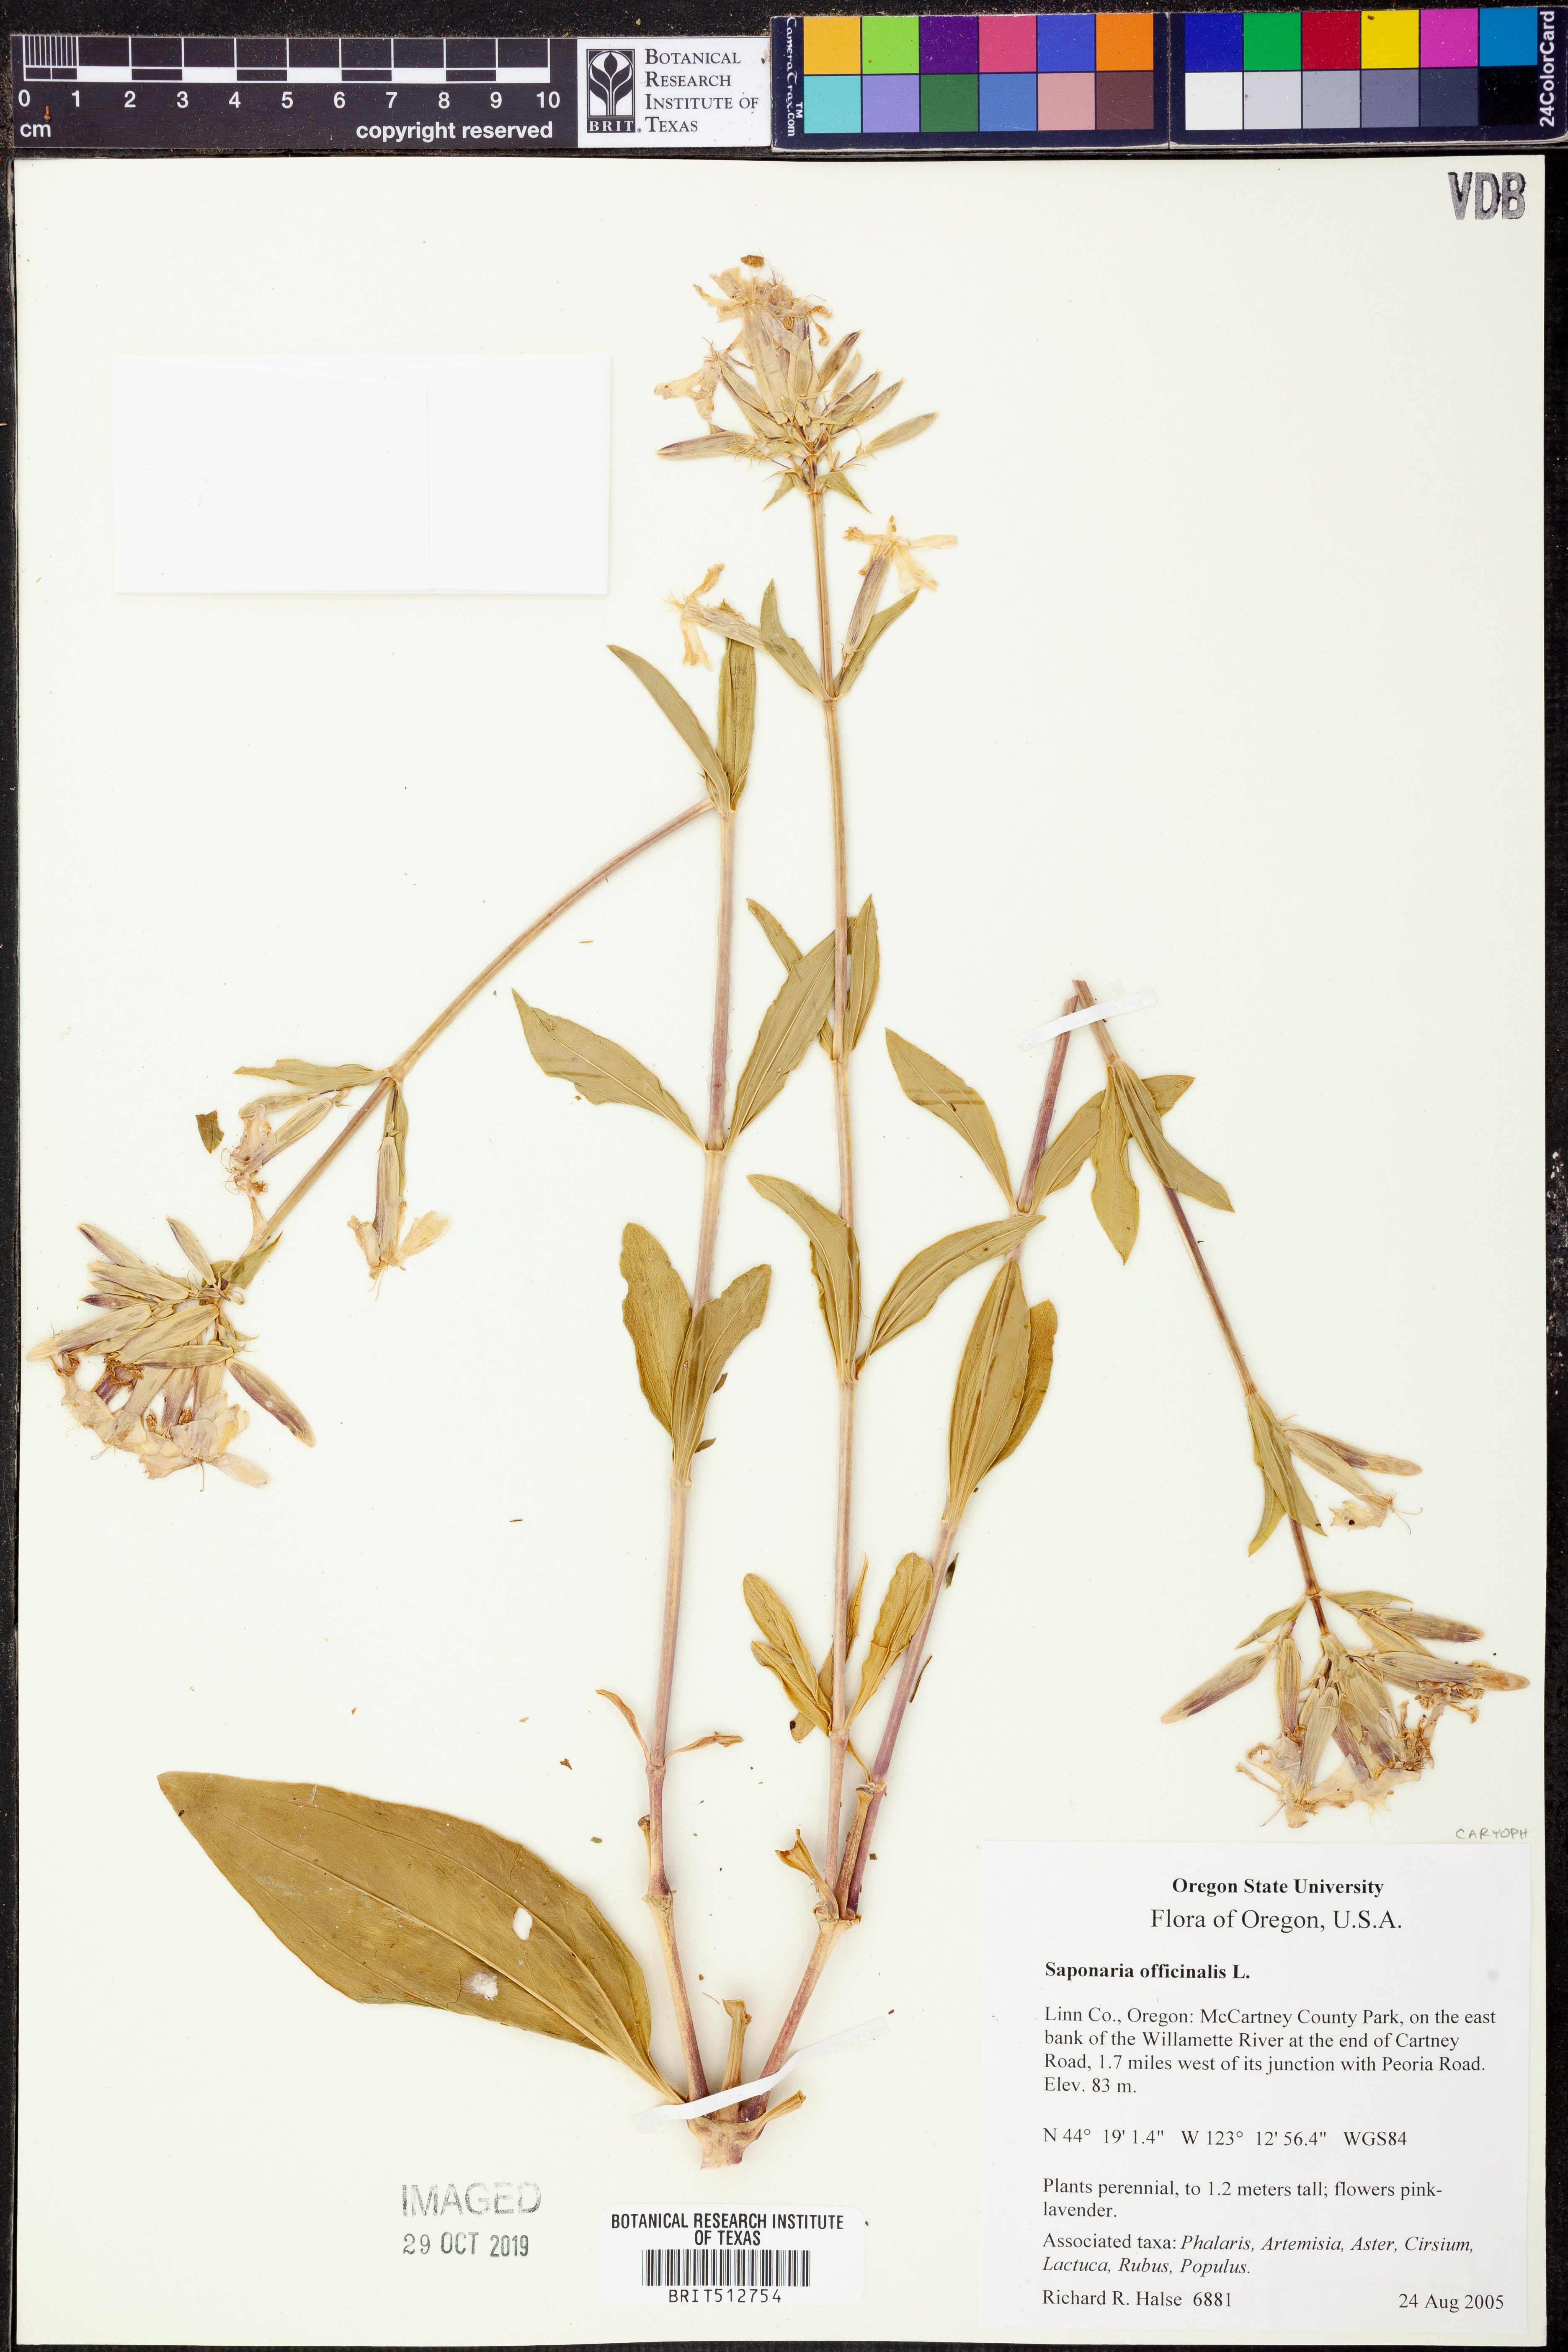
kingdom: Plantae
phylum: Tracheophyta
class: Magnoliopsida
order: Caryophyllales
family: Caryophyllaceae
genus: Saponaria
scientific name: Saponaria officinalis
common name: Soapwort
